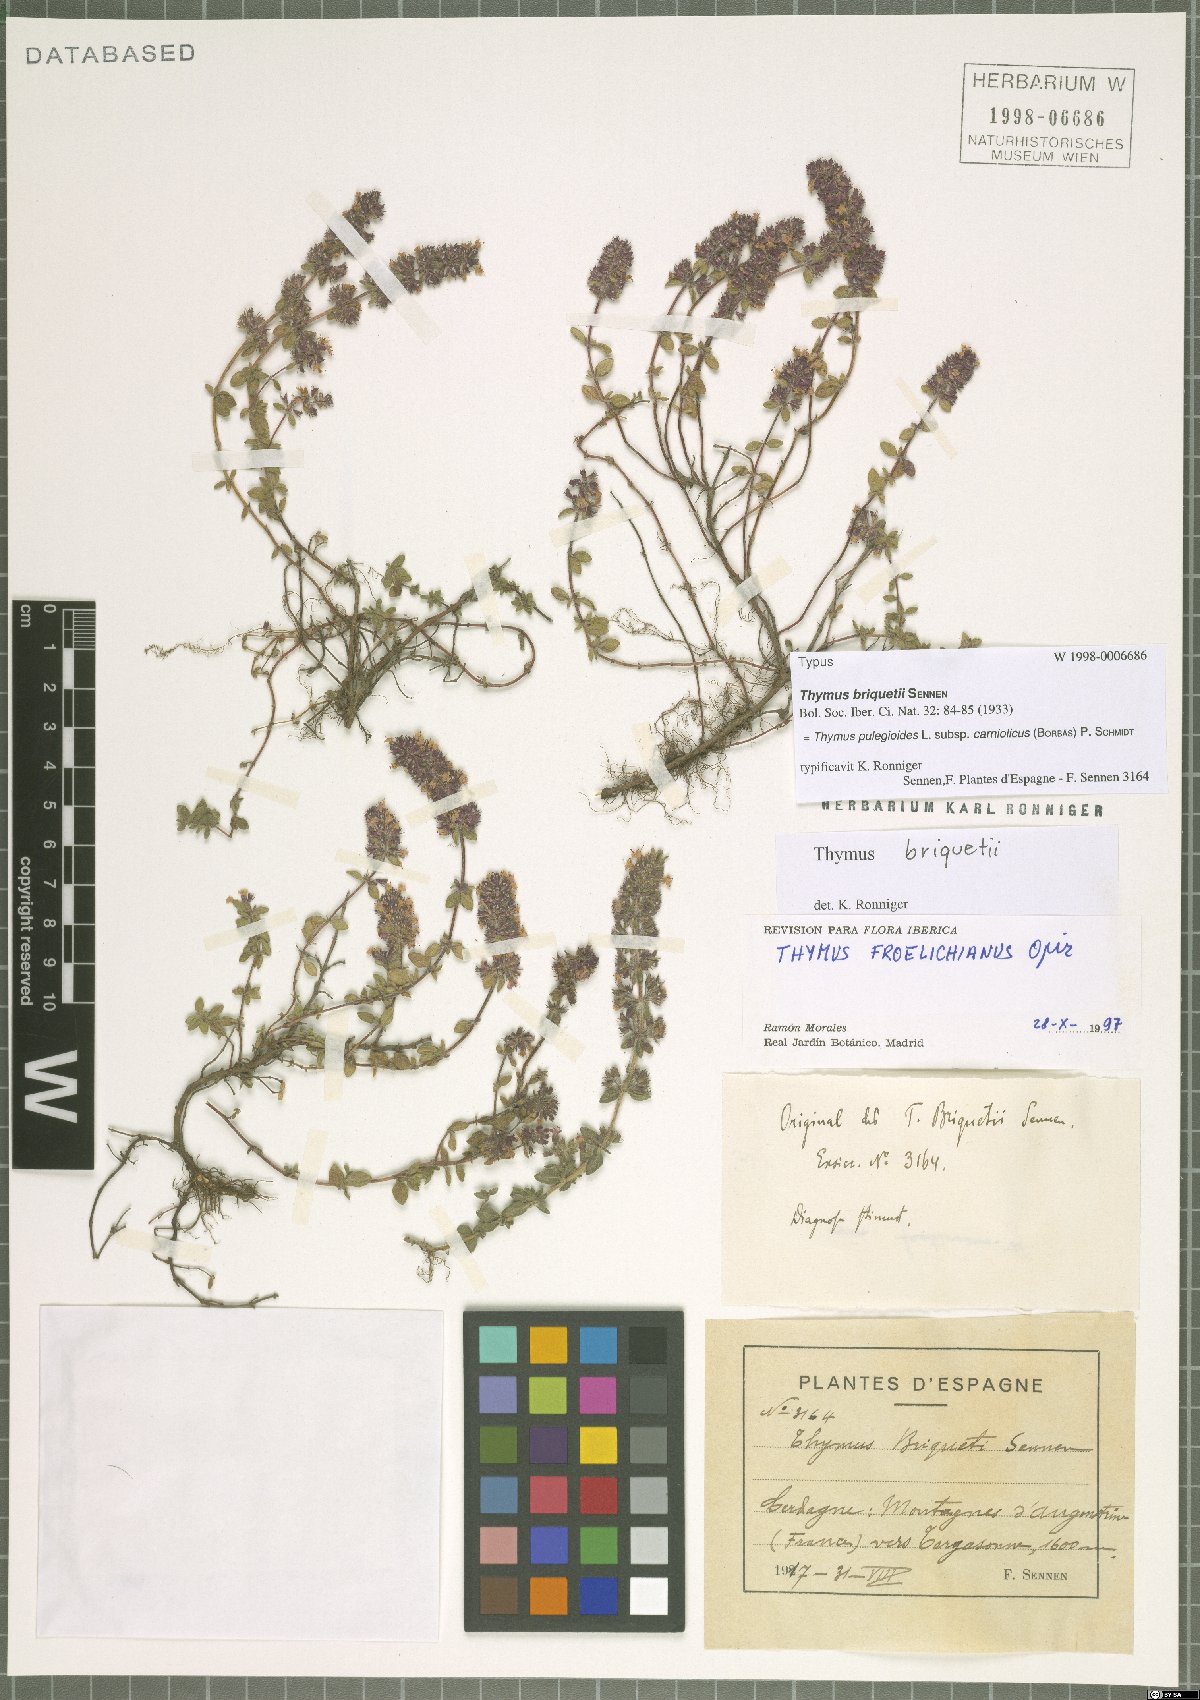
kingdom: Plantae
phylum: Tracheophyta
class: Magnoliopsida
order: Lamiales
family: Lamiaceae
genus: Thymus
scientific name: Thymus pannonicus
